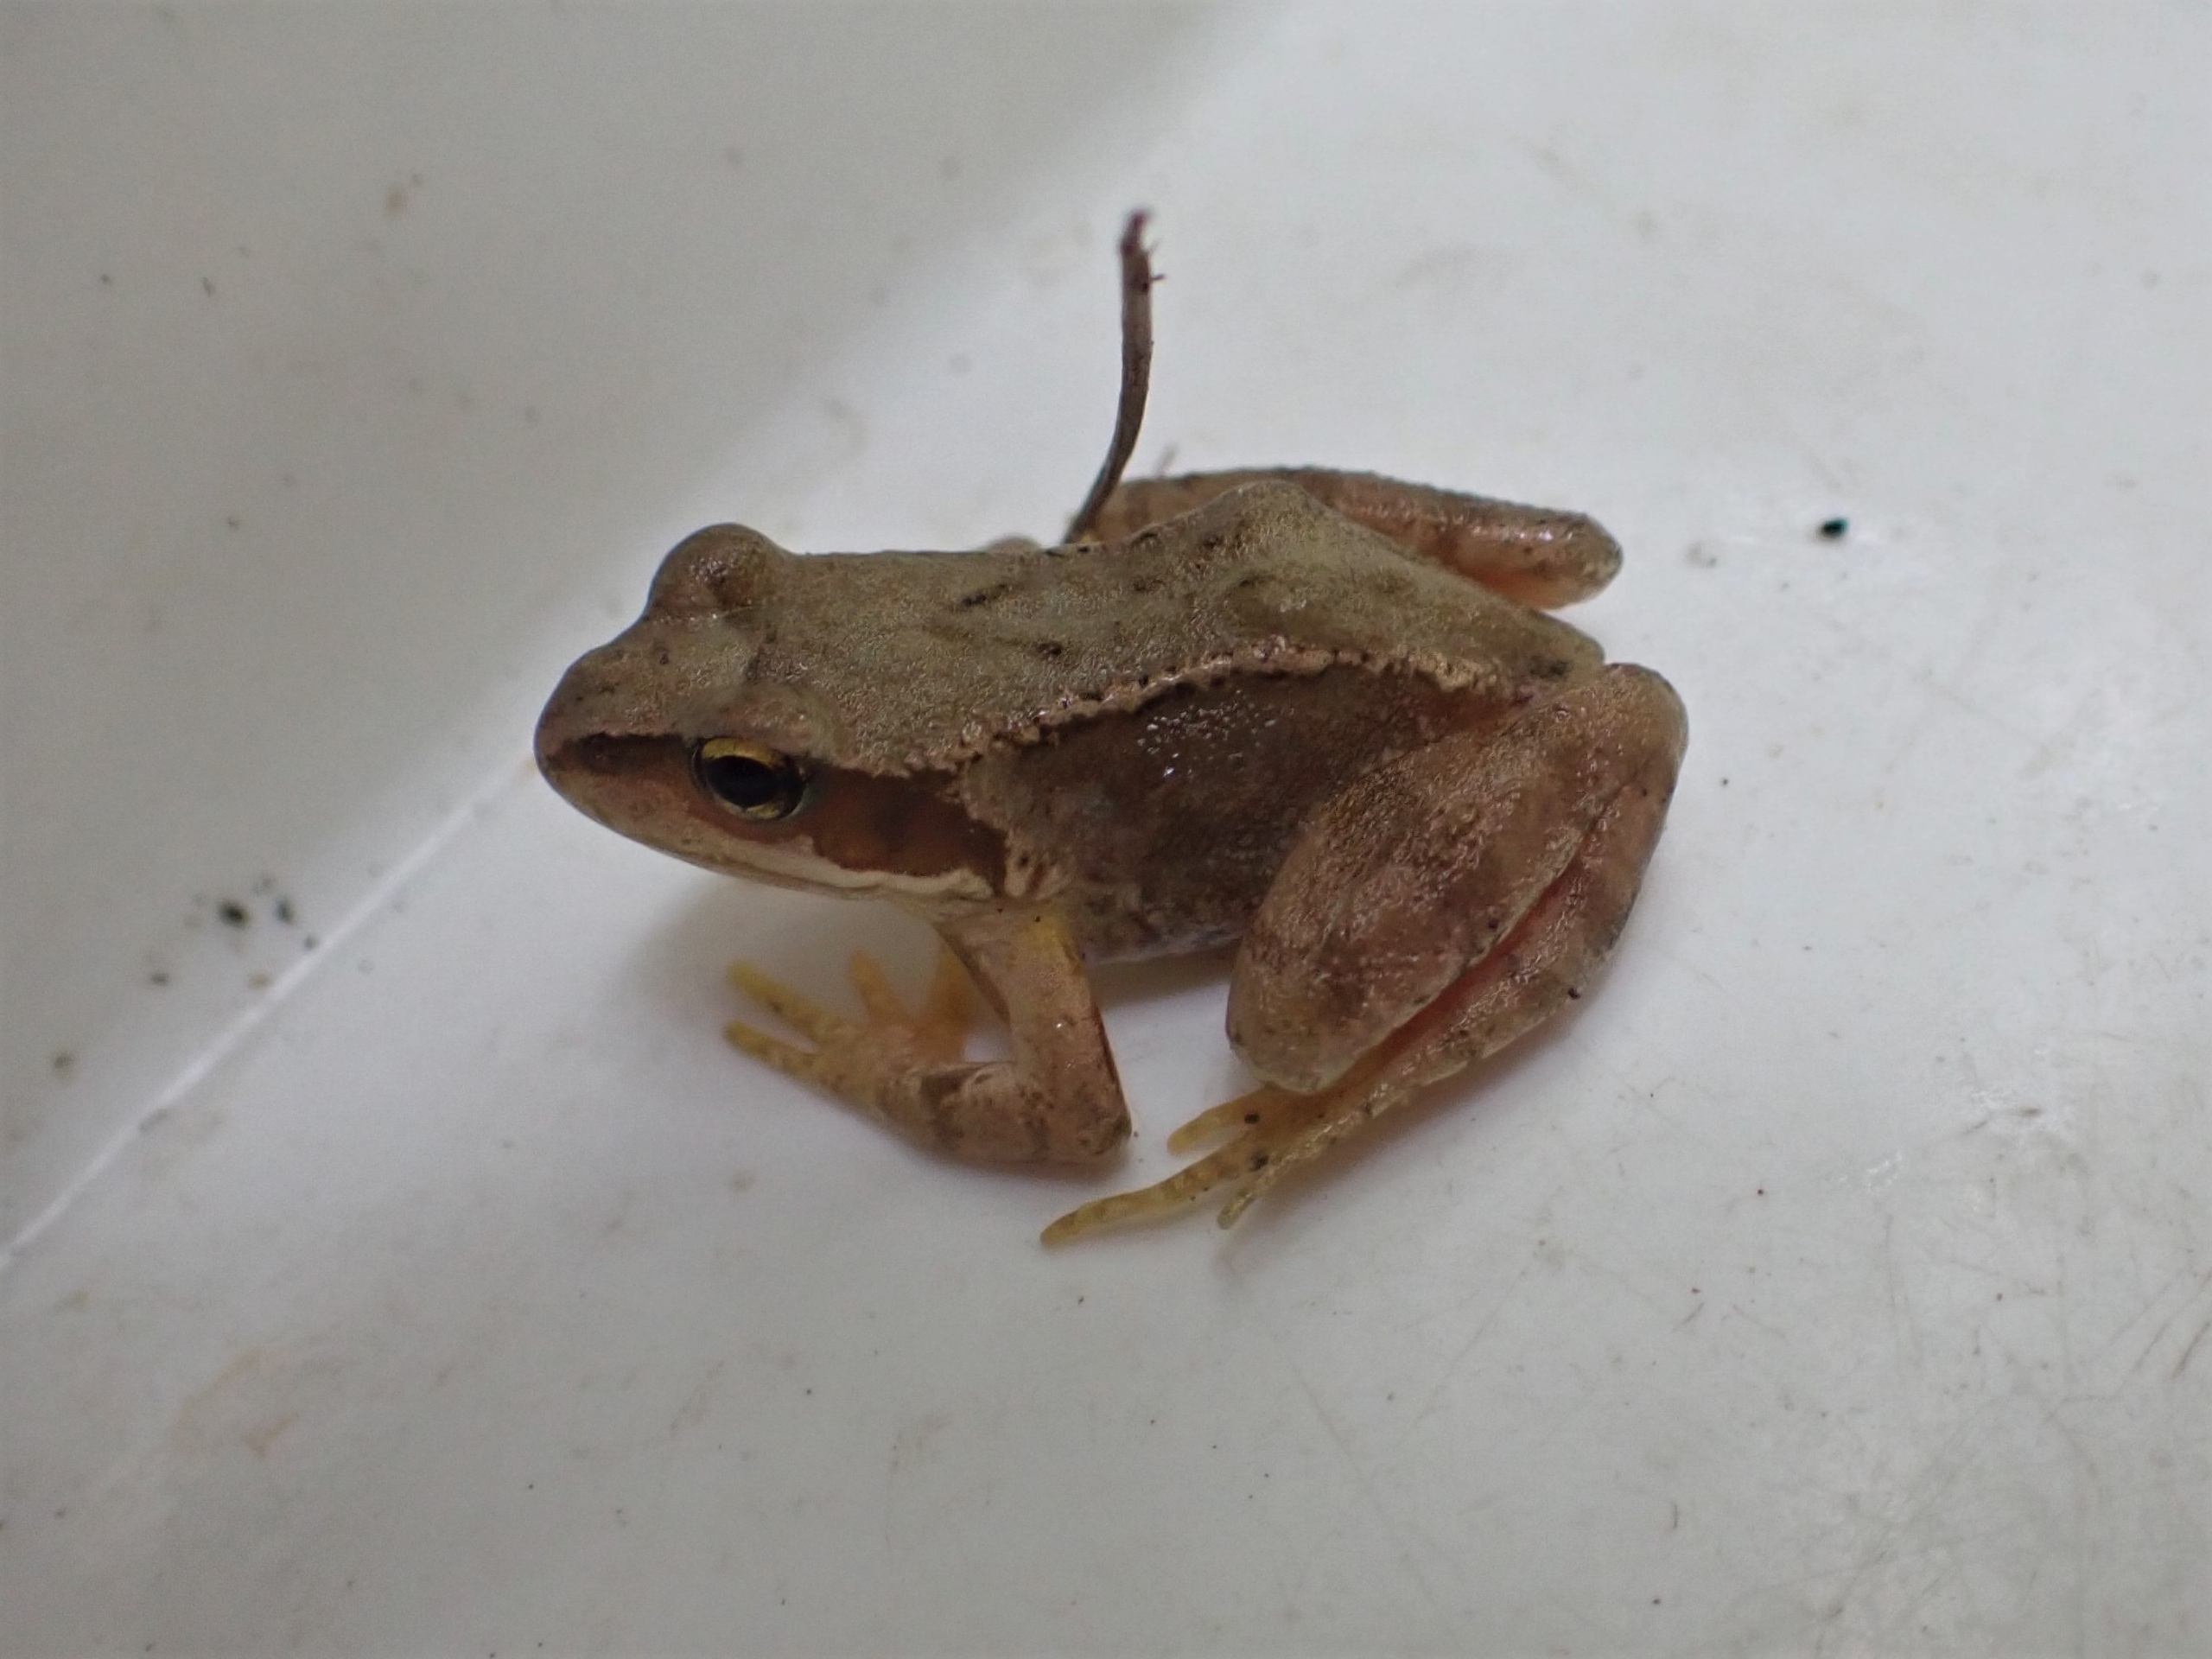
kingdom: Animalia
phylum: Chordata
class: Amphibia
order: Anura
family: Ranidae
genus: Rana
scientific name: Rana temporaria
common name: Butsnudet frø
